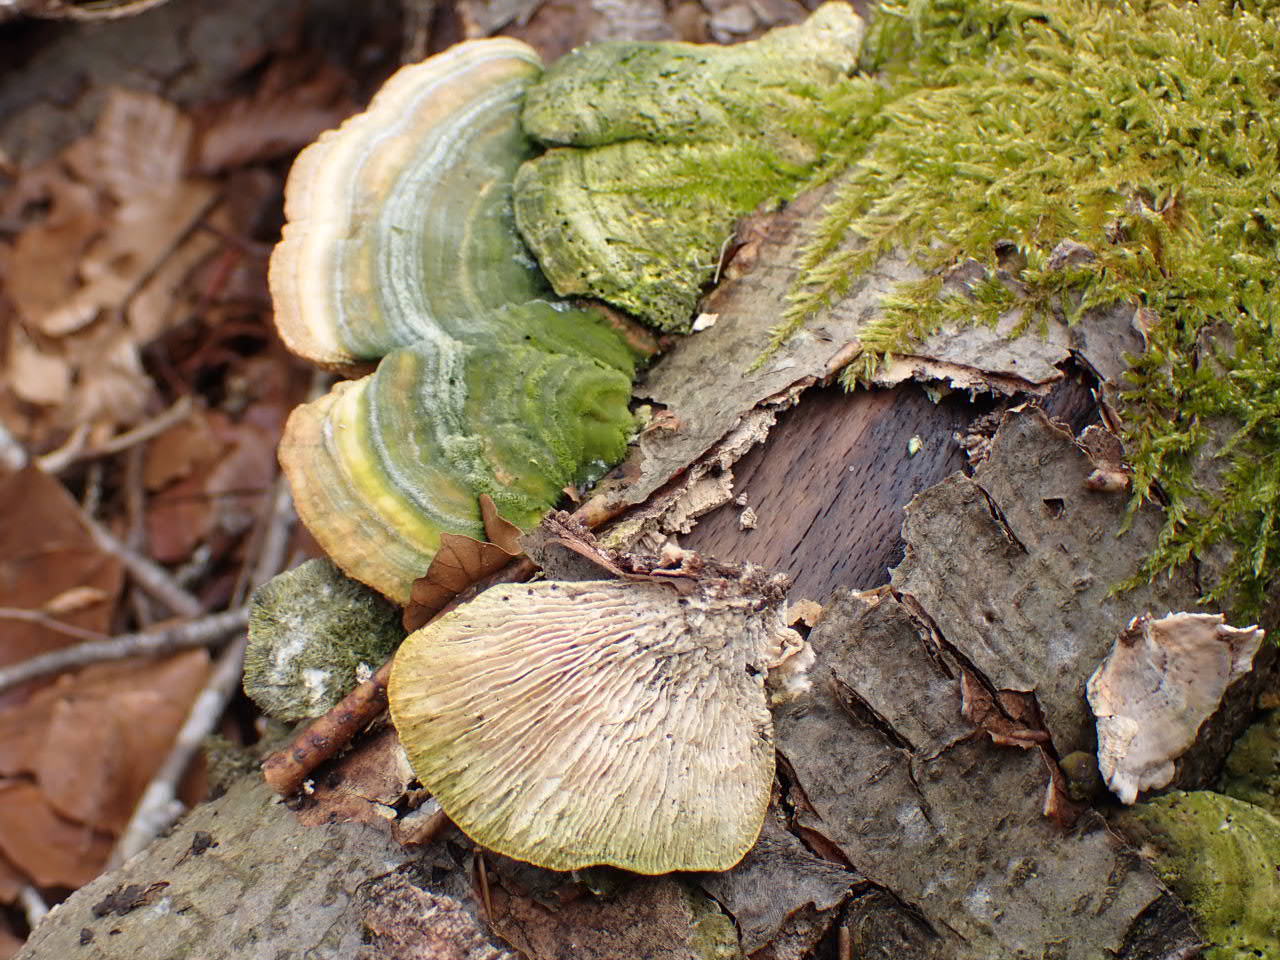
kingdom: Fungi
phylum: Basidiomycota
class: Agaricomycetes
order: Polyporales
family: Polyporaceae
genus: Lenzites
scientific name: Lenzites betulinus
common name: birke-læderporesvamp
